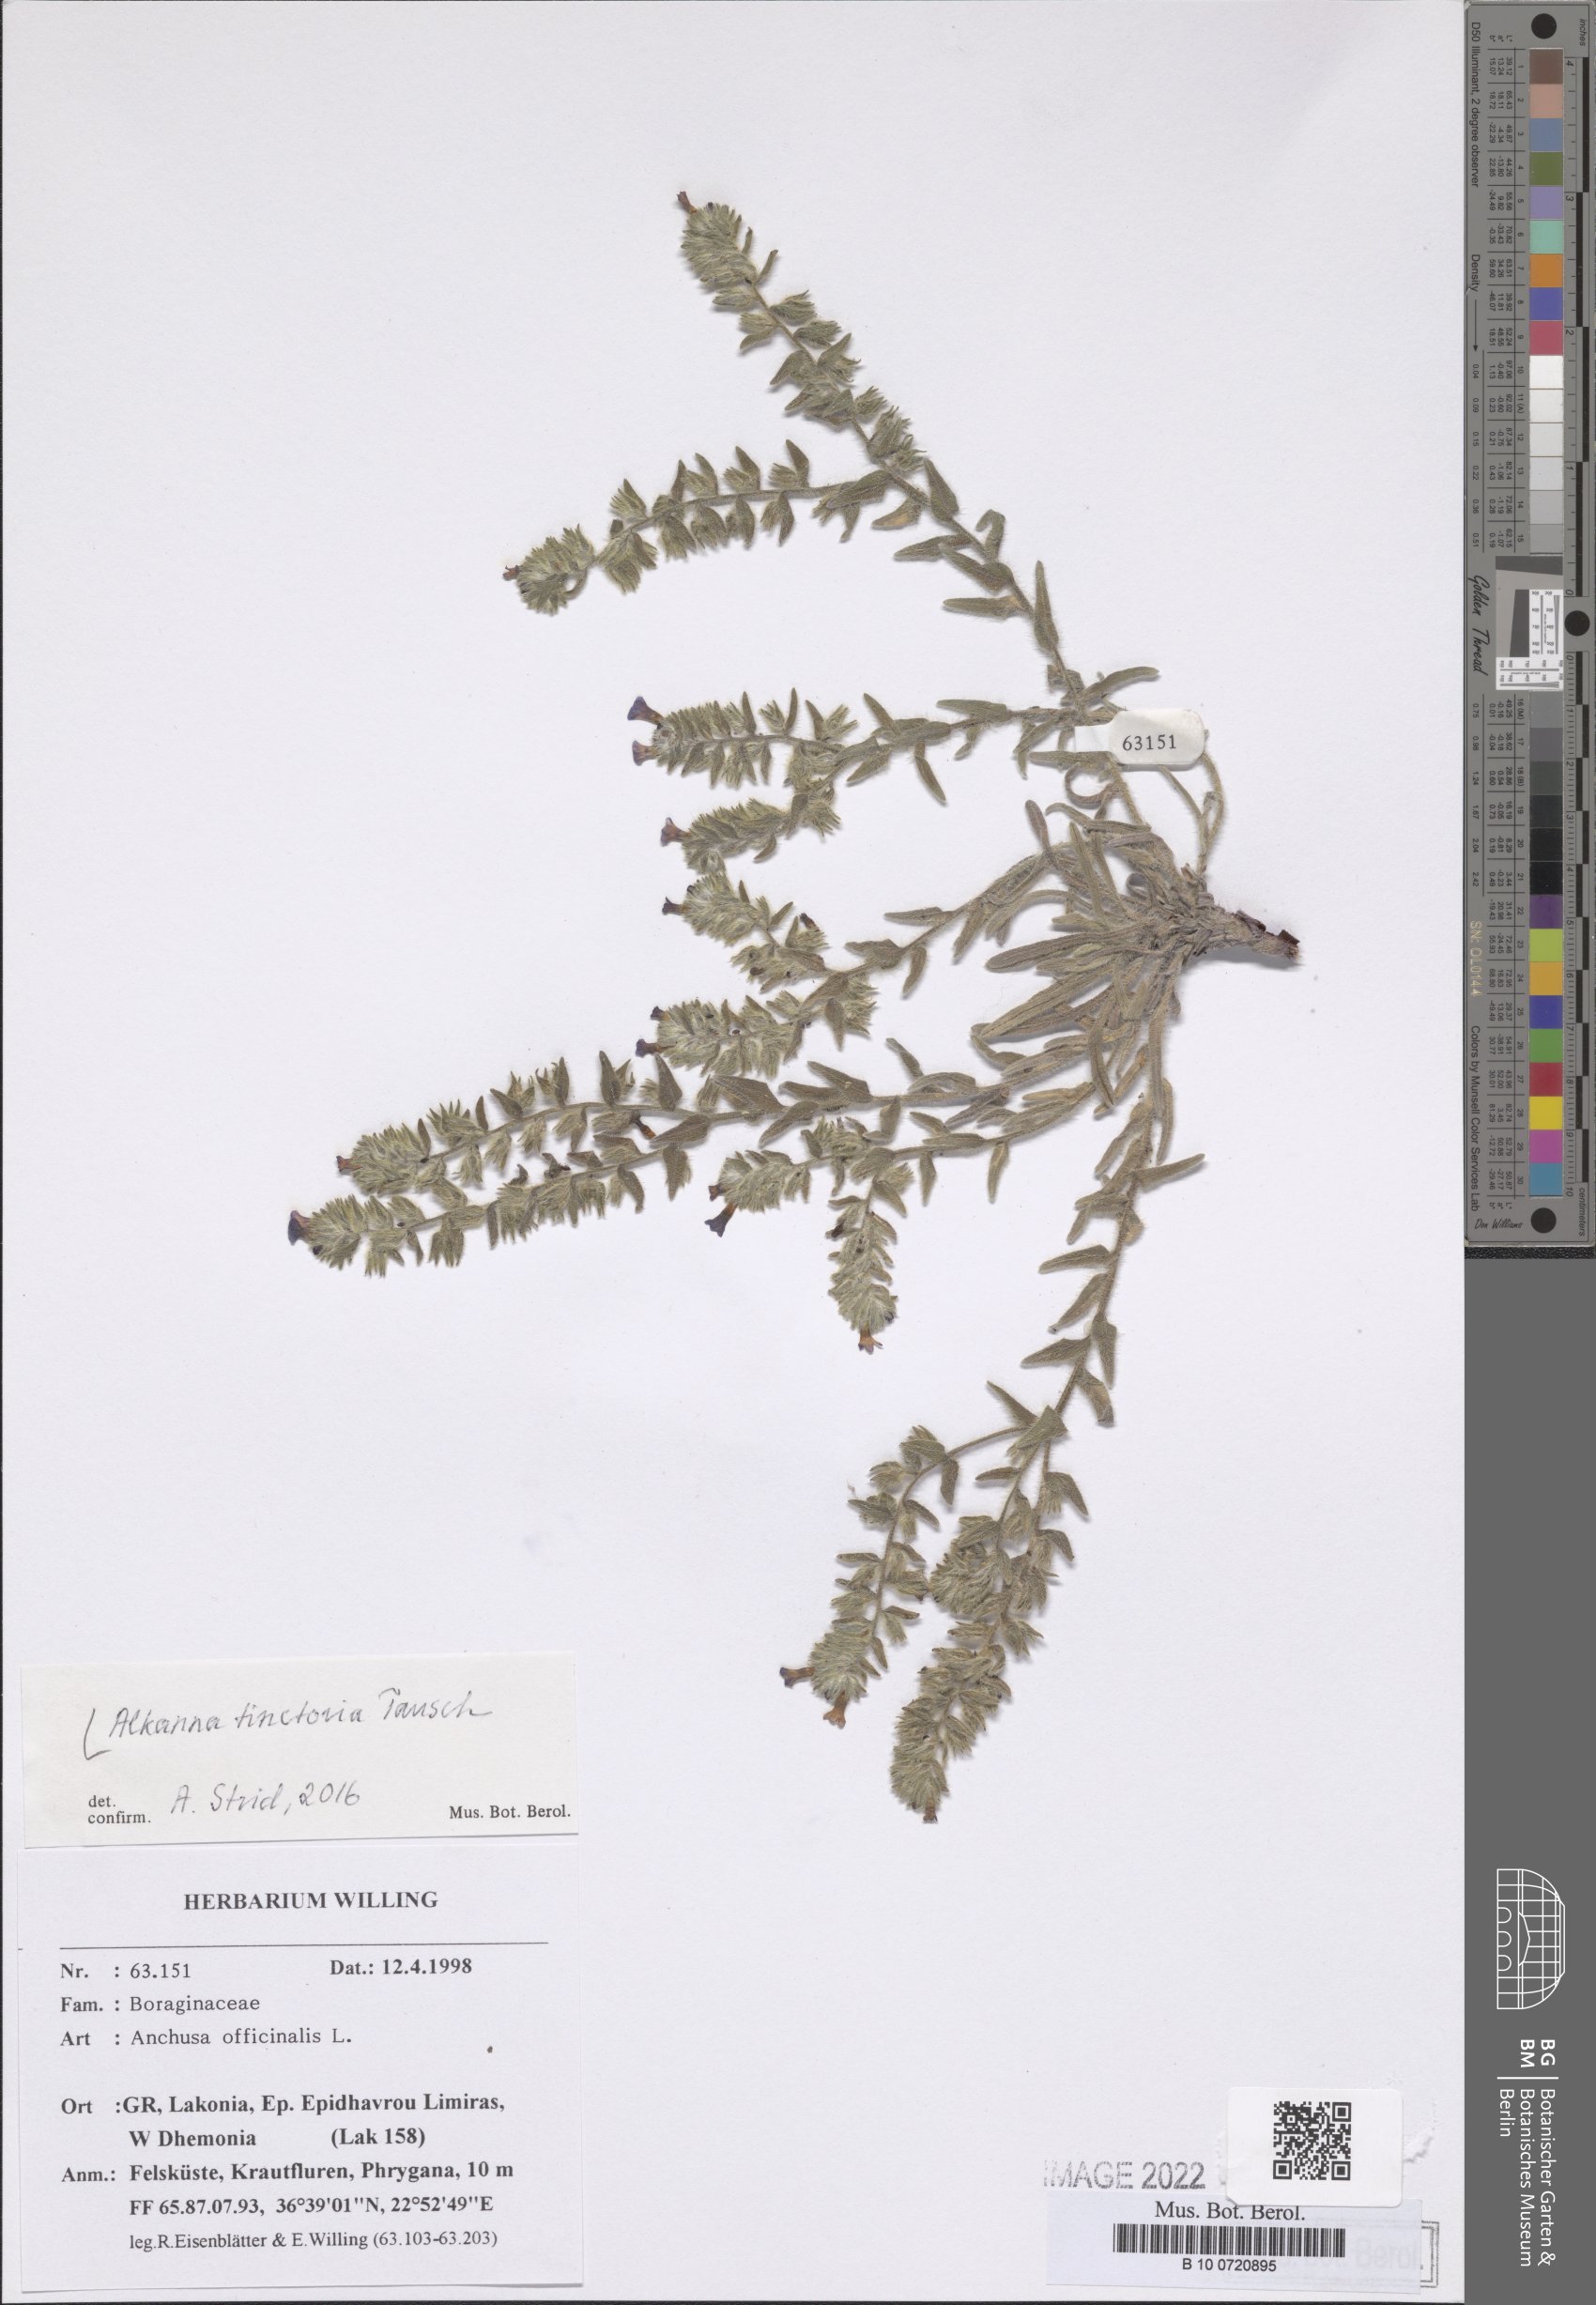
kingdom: Plantae
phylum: Tracheophyta
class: Magnoliopsida
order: Boraginales
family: Boraginaceae
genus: Alkanna
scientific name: Alkanna tinctoria
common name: Dyer's-alkanet
